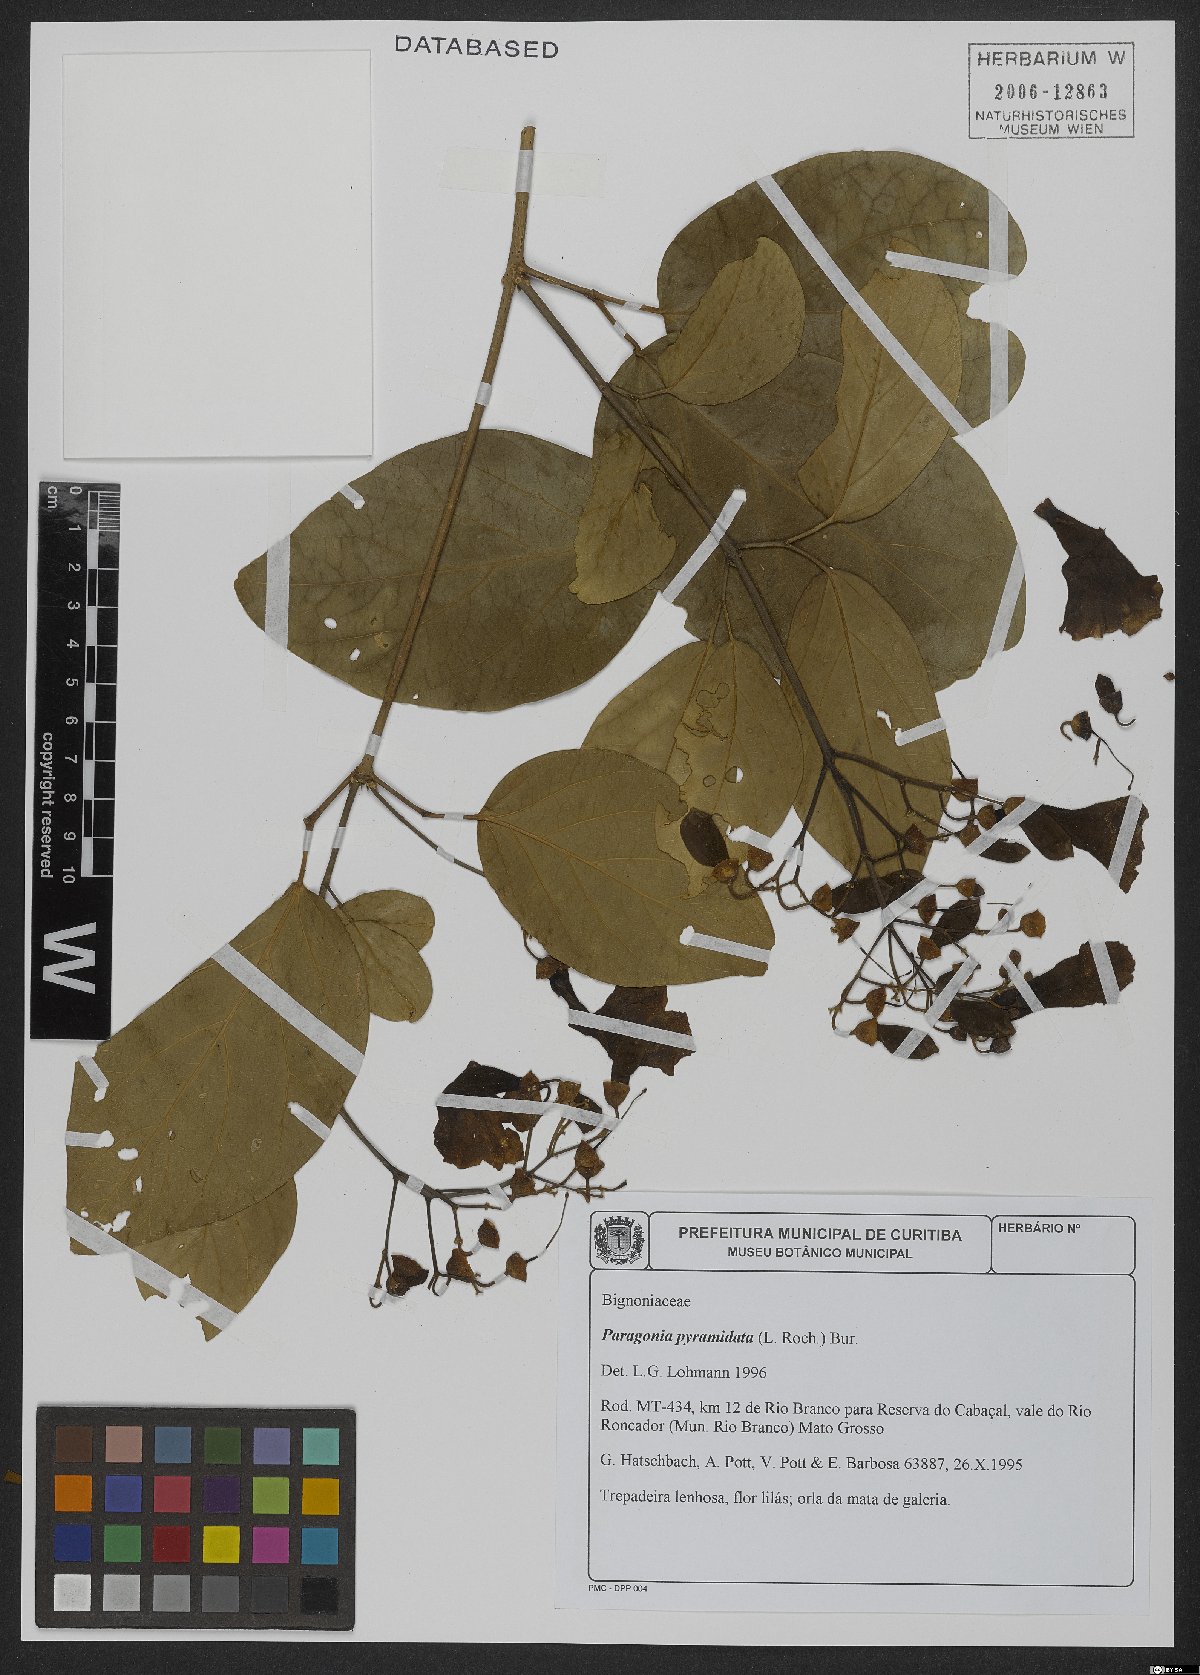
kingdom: Plantae
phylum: Tracheophyta
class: Magnoliopsida
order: Lamiales
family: Bignoniaceae
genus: Tanaecium
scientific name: Tanaecium pyramidatum
